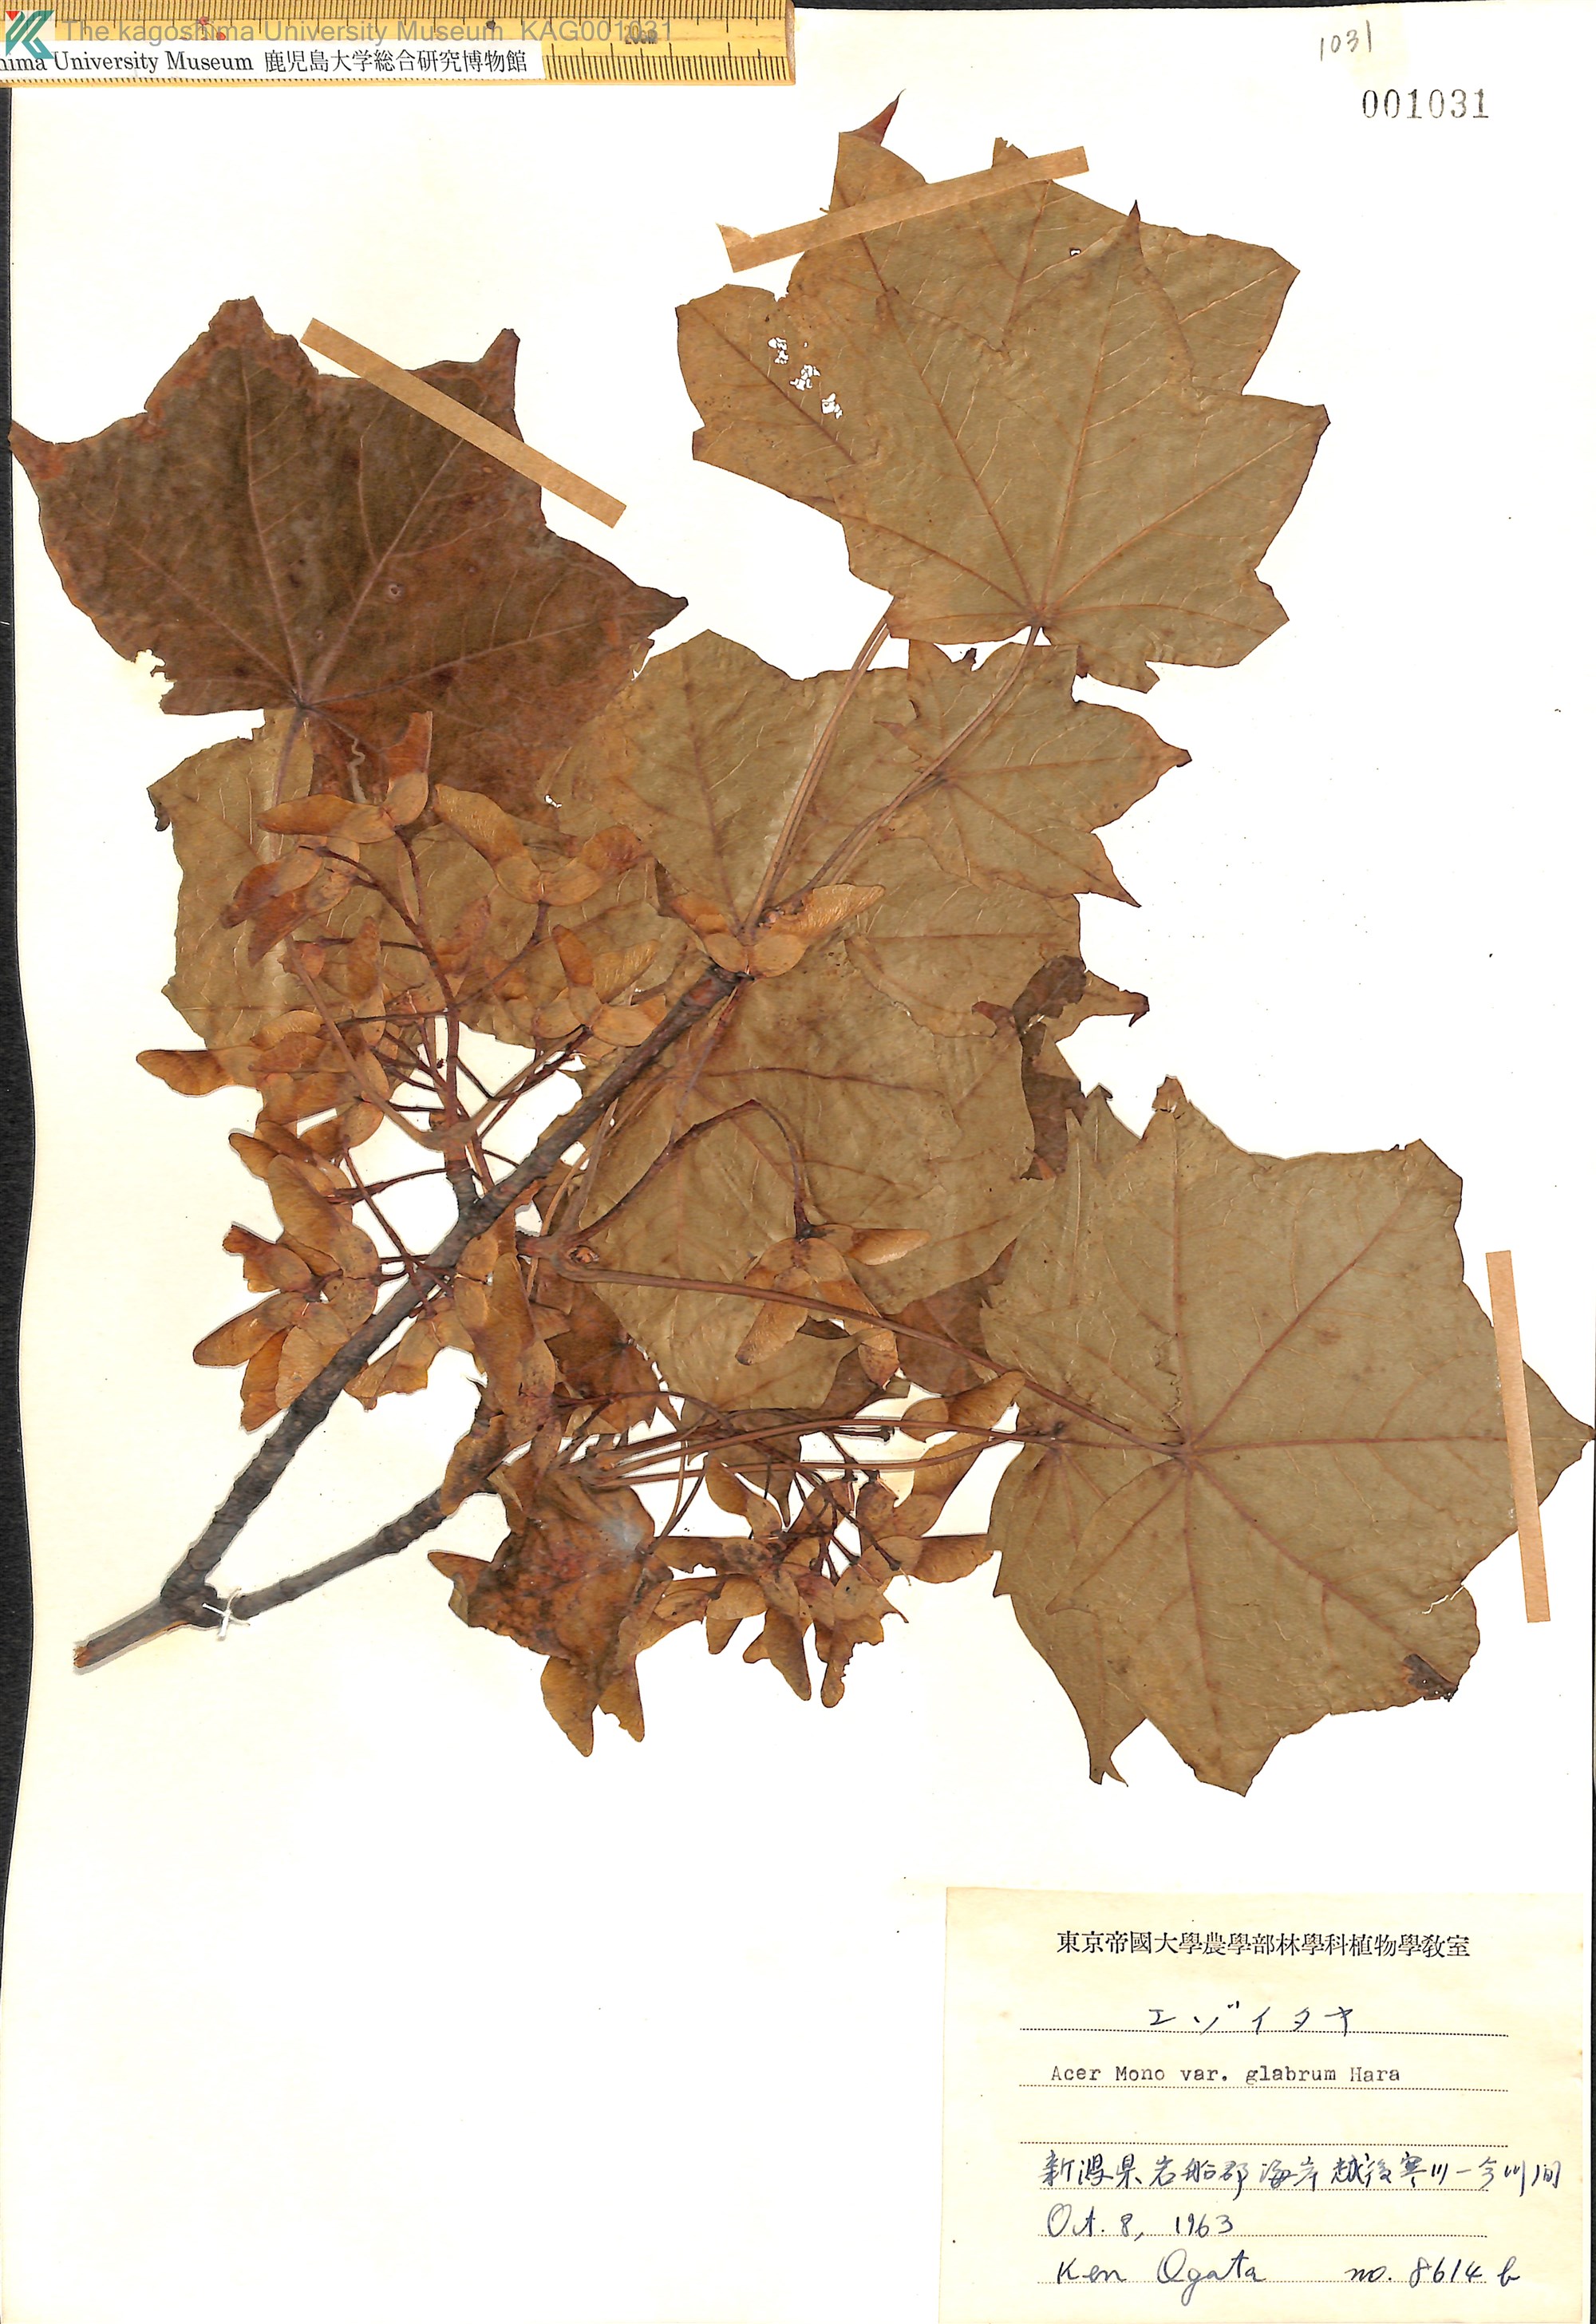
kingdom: Plantae
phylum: Tracheophyta
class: Magnoliopsida
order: Sapindales
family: Sapindaceae
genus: Acer
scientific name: Acer pictum
